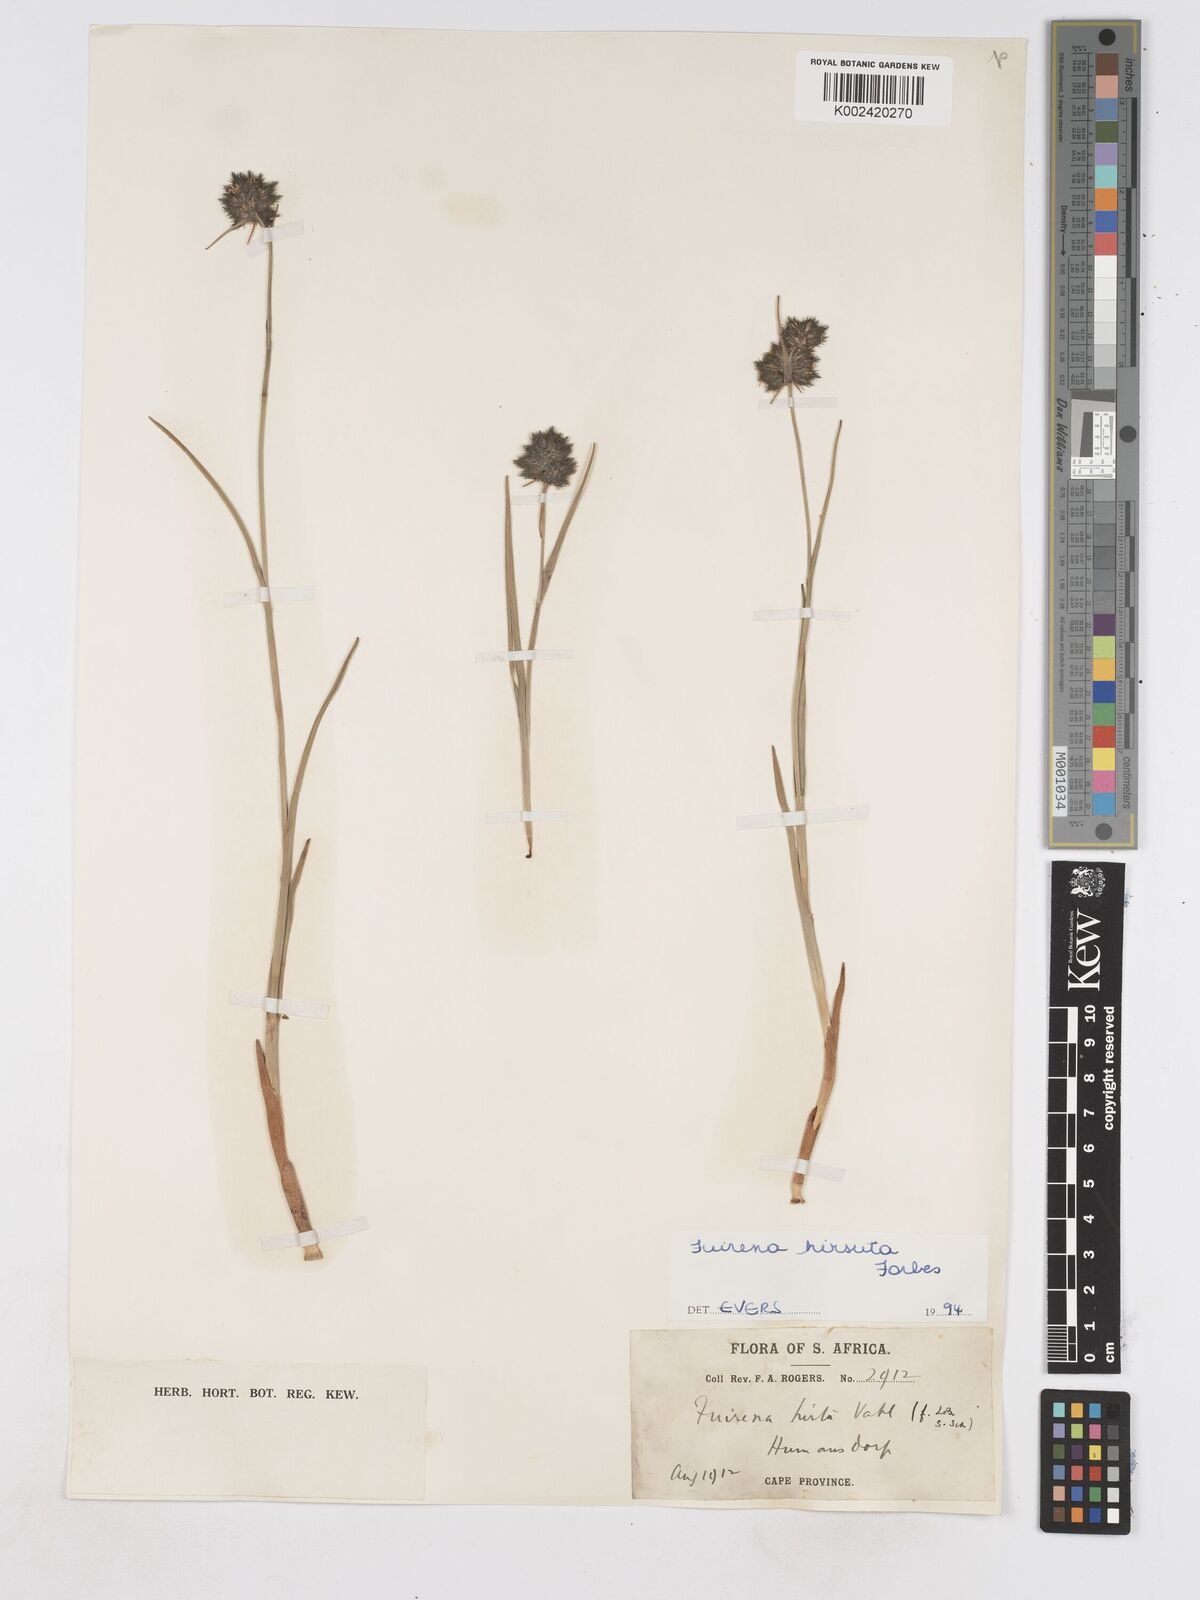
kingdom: Plantae
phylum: Tracheophyta
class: Liliopsida
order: Poales
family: Cyperaceae
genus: Fuirena
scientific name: Fuirena hirsuta
